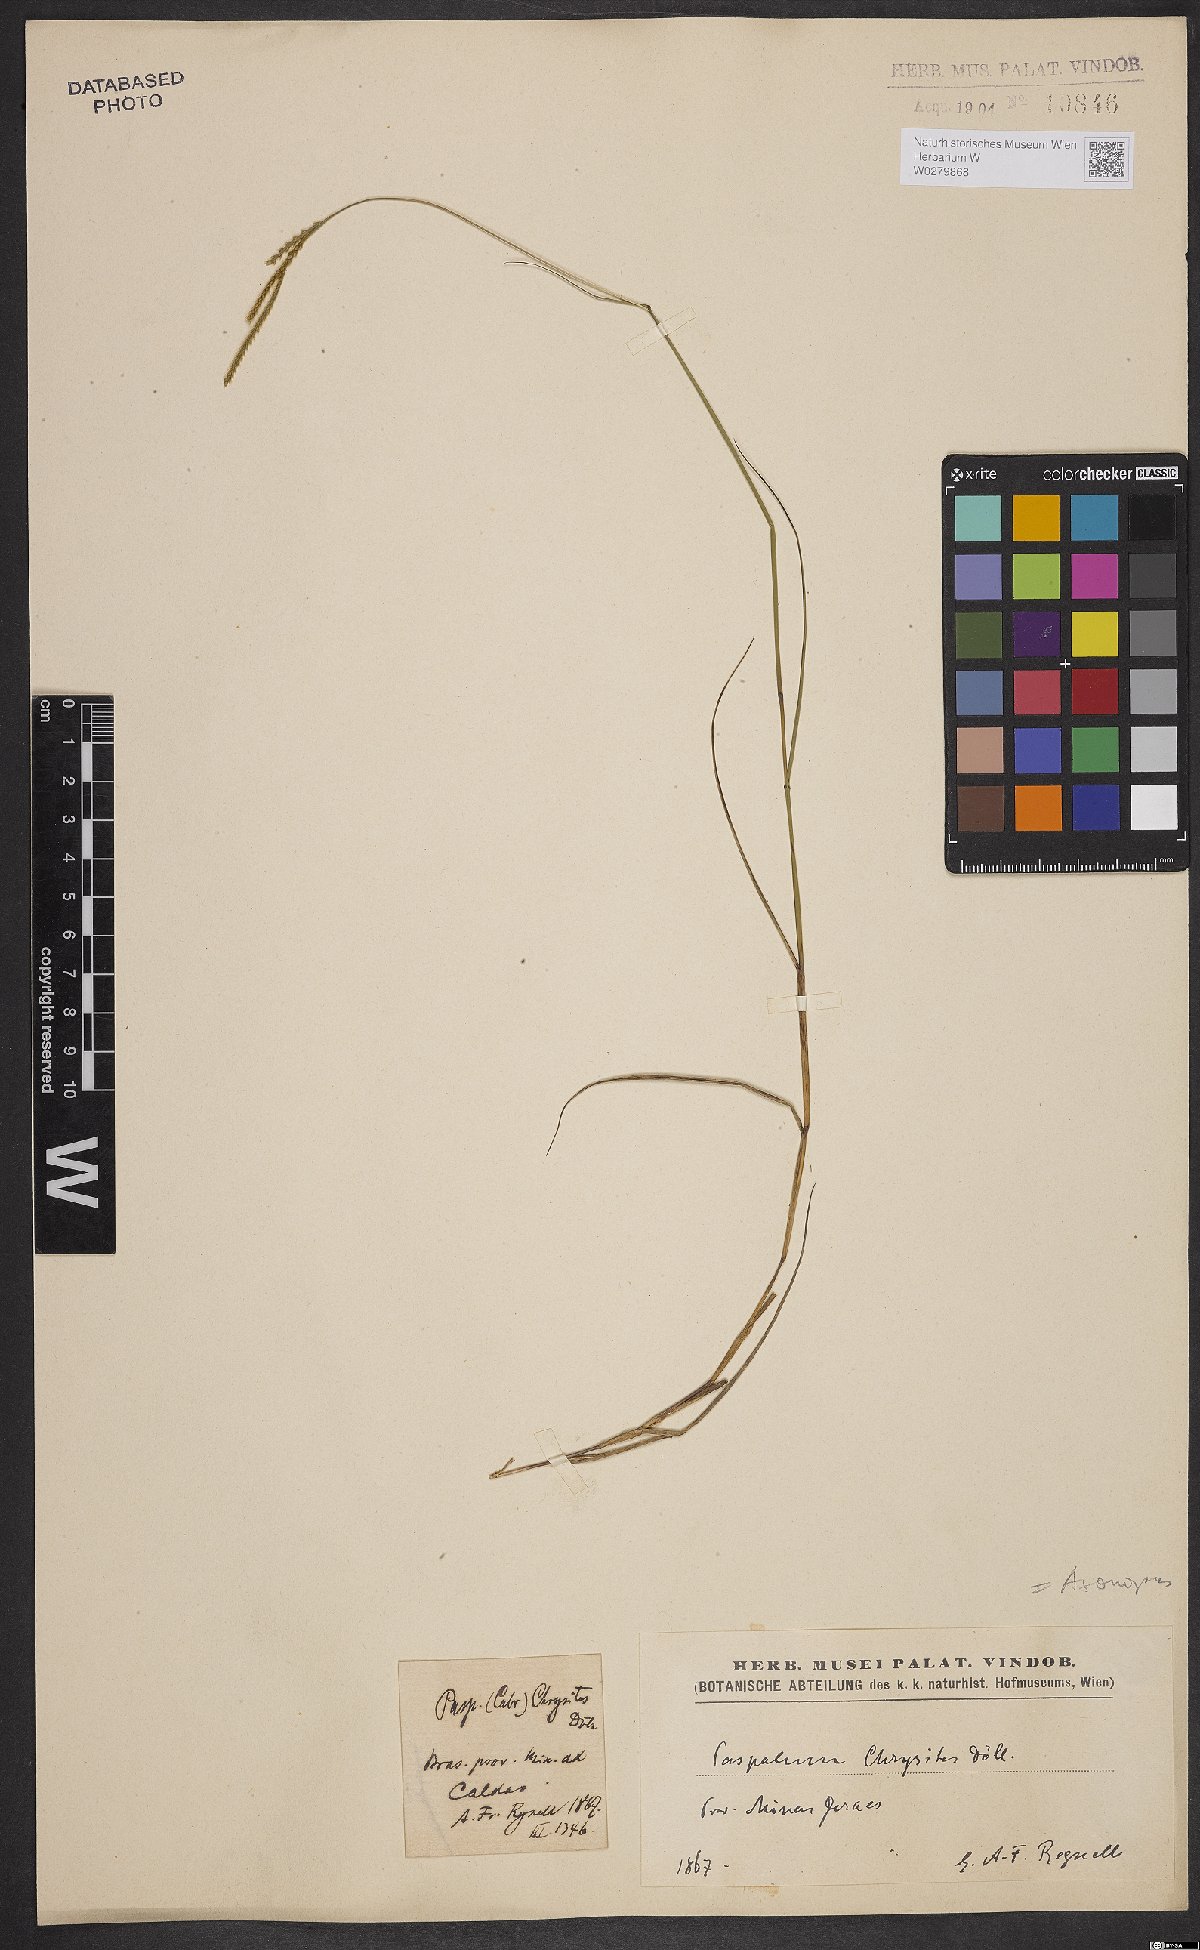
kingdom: Plantae
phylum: Tracheophyta
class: Liliopsida
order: Poales
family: Poaceae
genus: Axonopus
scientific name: Axonopus aureus
